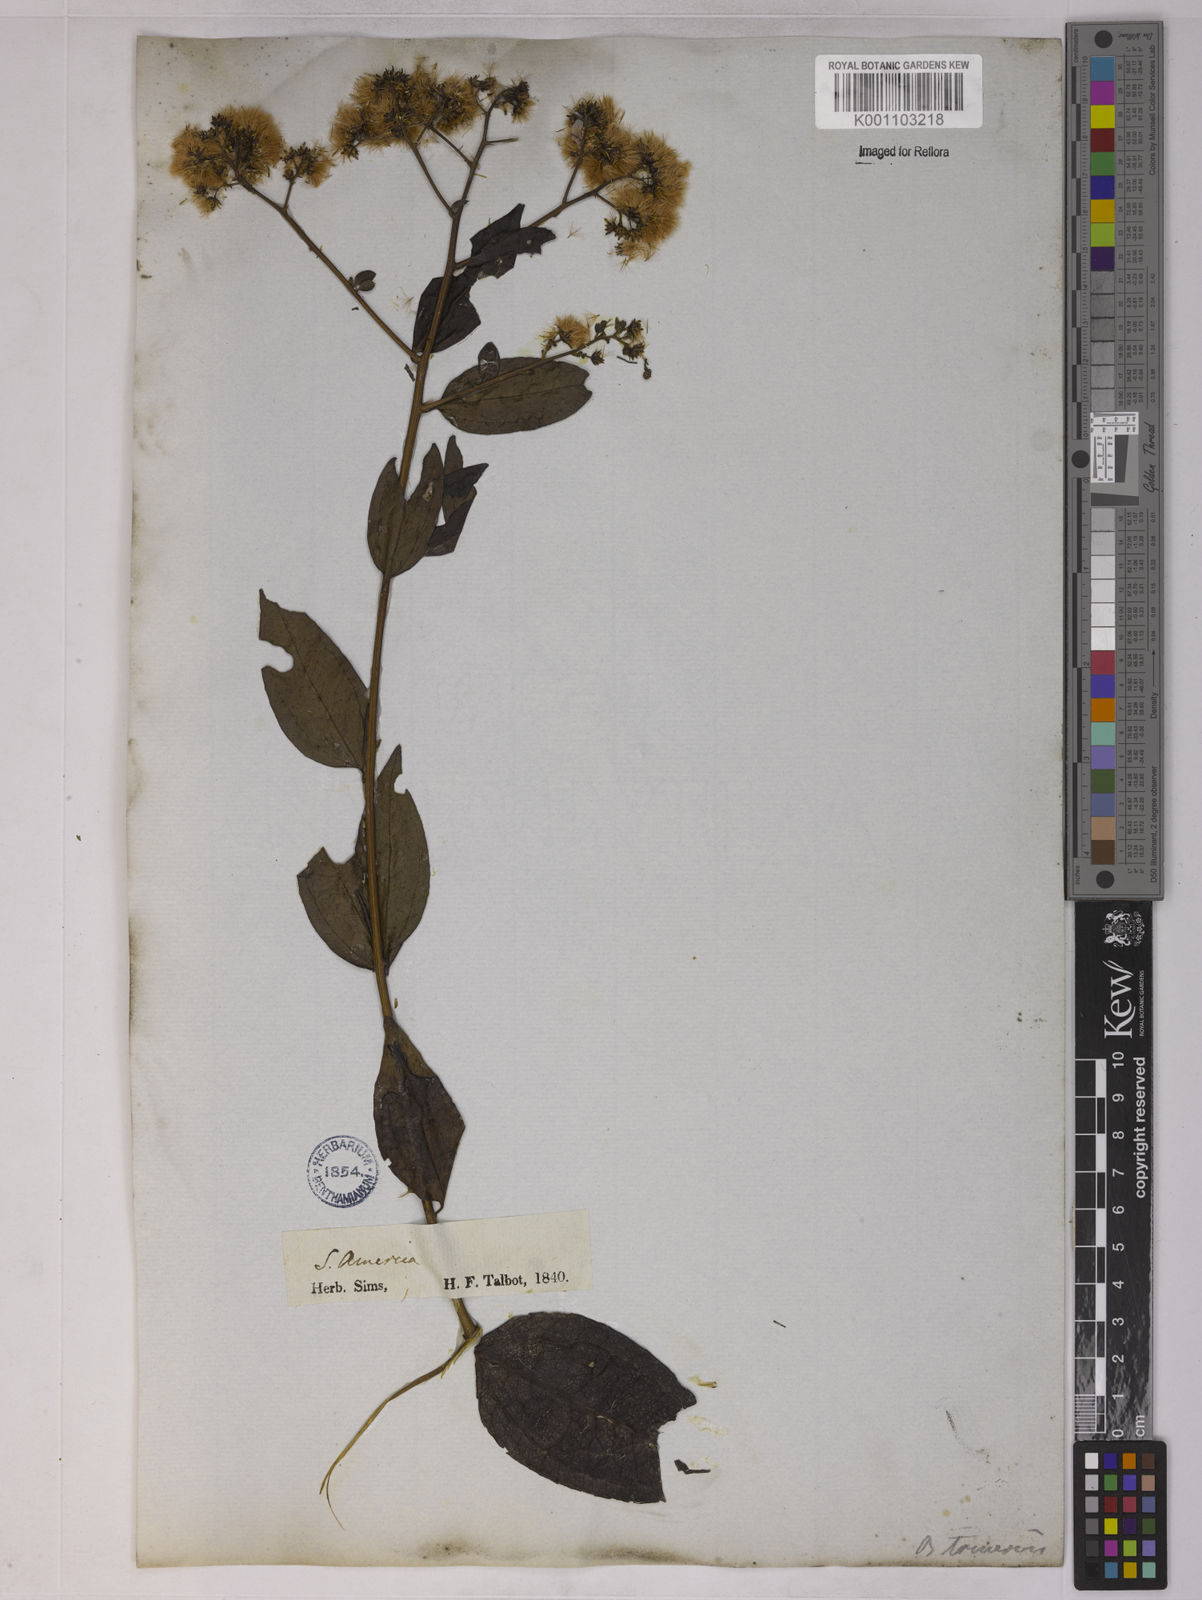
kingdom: Plantae
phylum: Tracheophyta
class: Magnoliopsida
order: Asterales
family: Asteraceae
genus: Baccharis
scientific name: Baccharis trinervis
